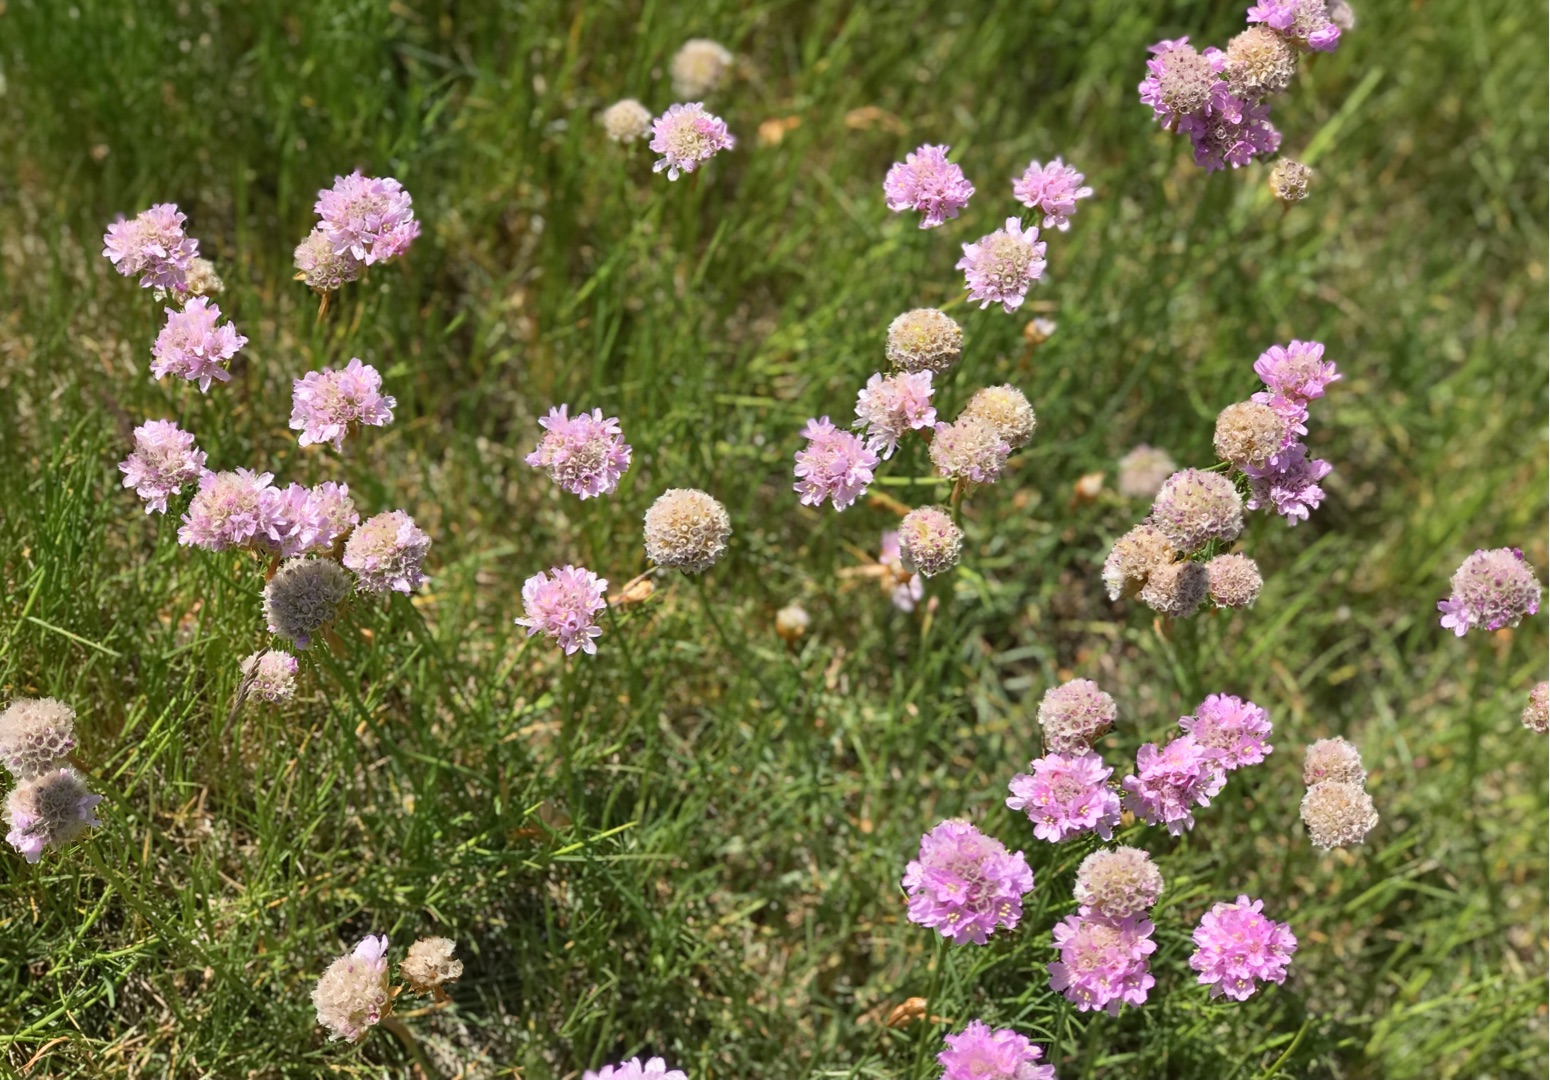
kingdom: Plantae
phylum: Tracheophyta
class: Magnoliopsida
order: Caryophyllales
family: Plumbaginaceae
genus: Armeria
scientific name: Armeria maritima
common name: Engelskgræs
